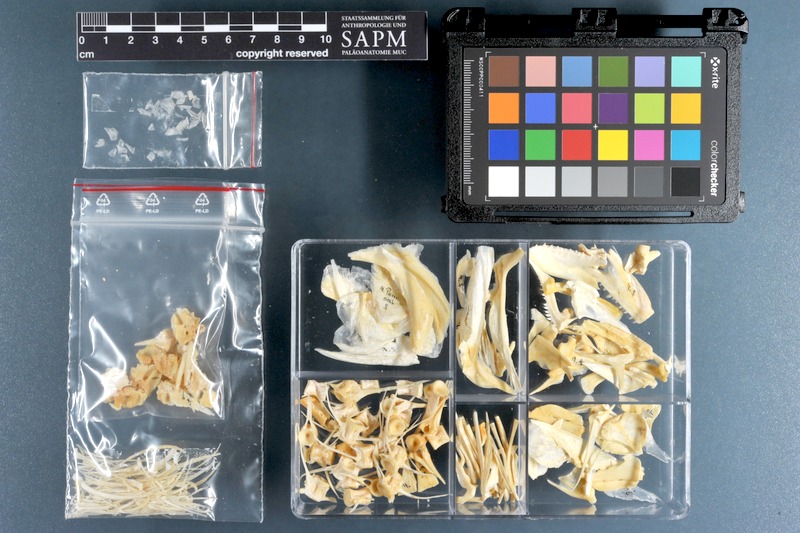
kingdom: Animalia
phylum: Chordata
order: Perciformes
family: Pomatomidae
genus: Pomatomus
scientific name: Pomatomus saltatrix
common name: Bluefish
